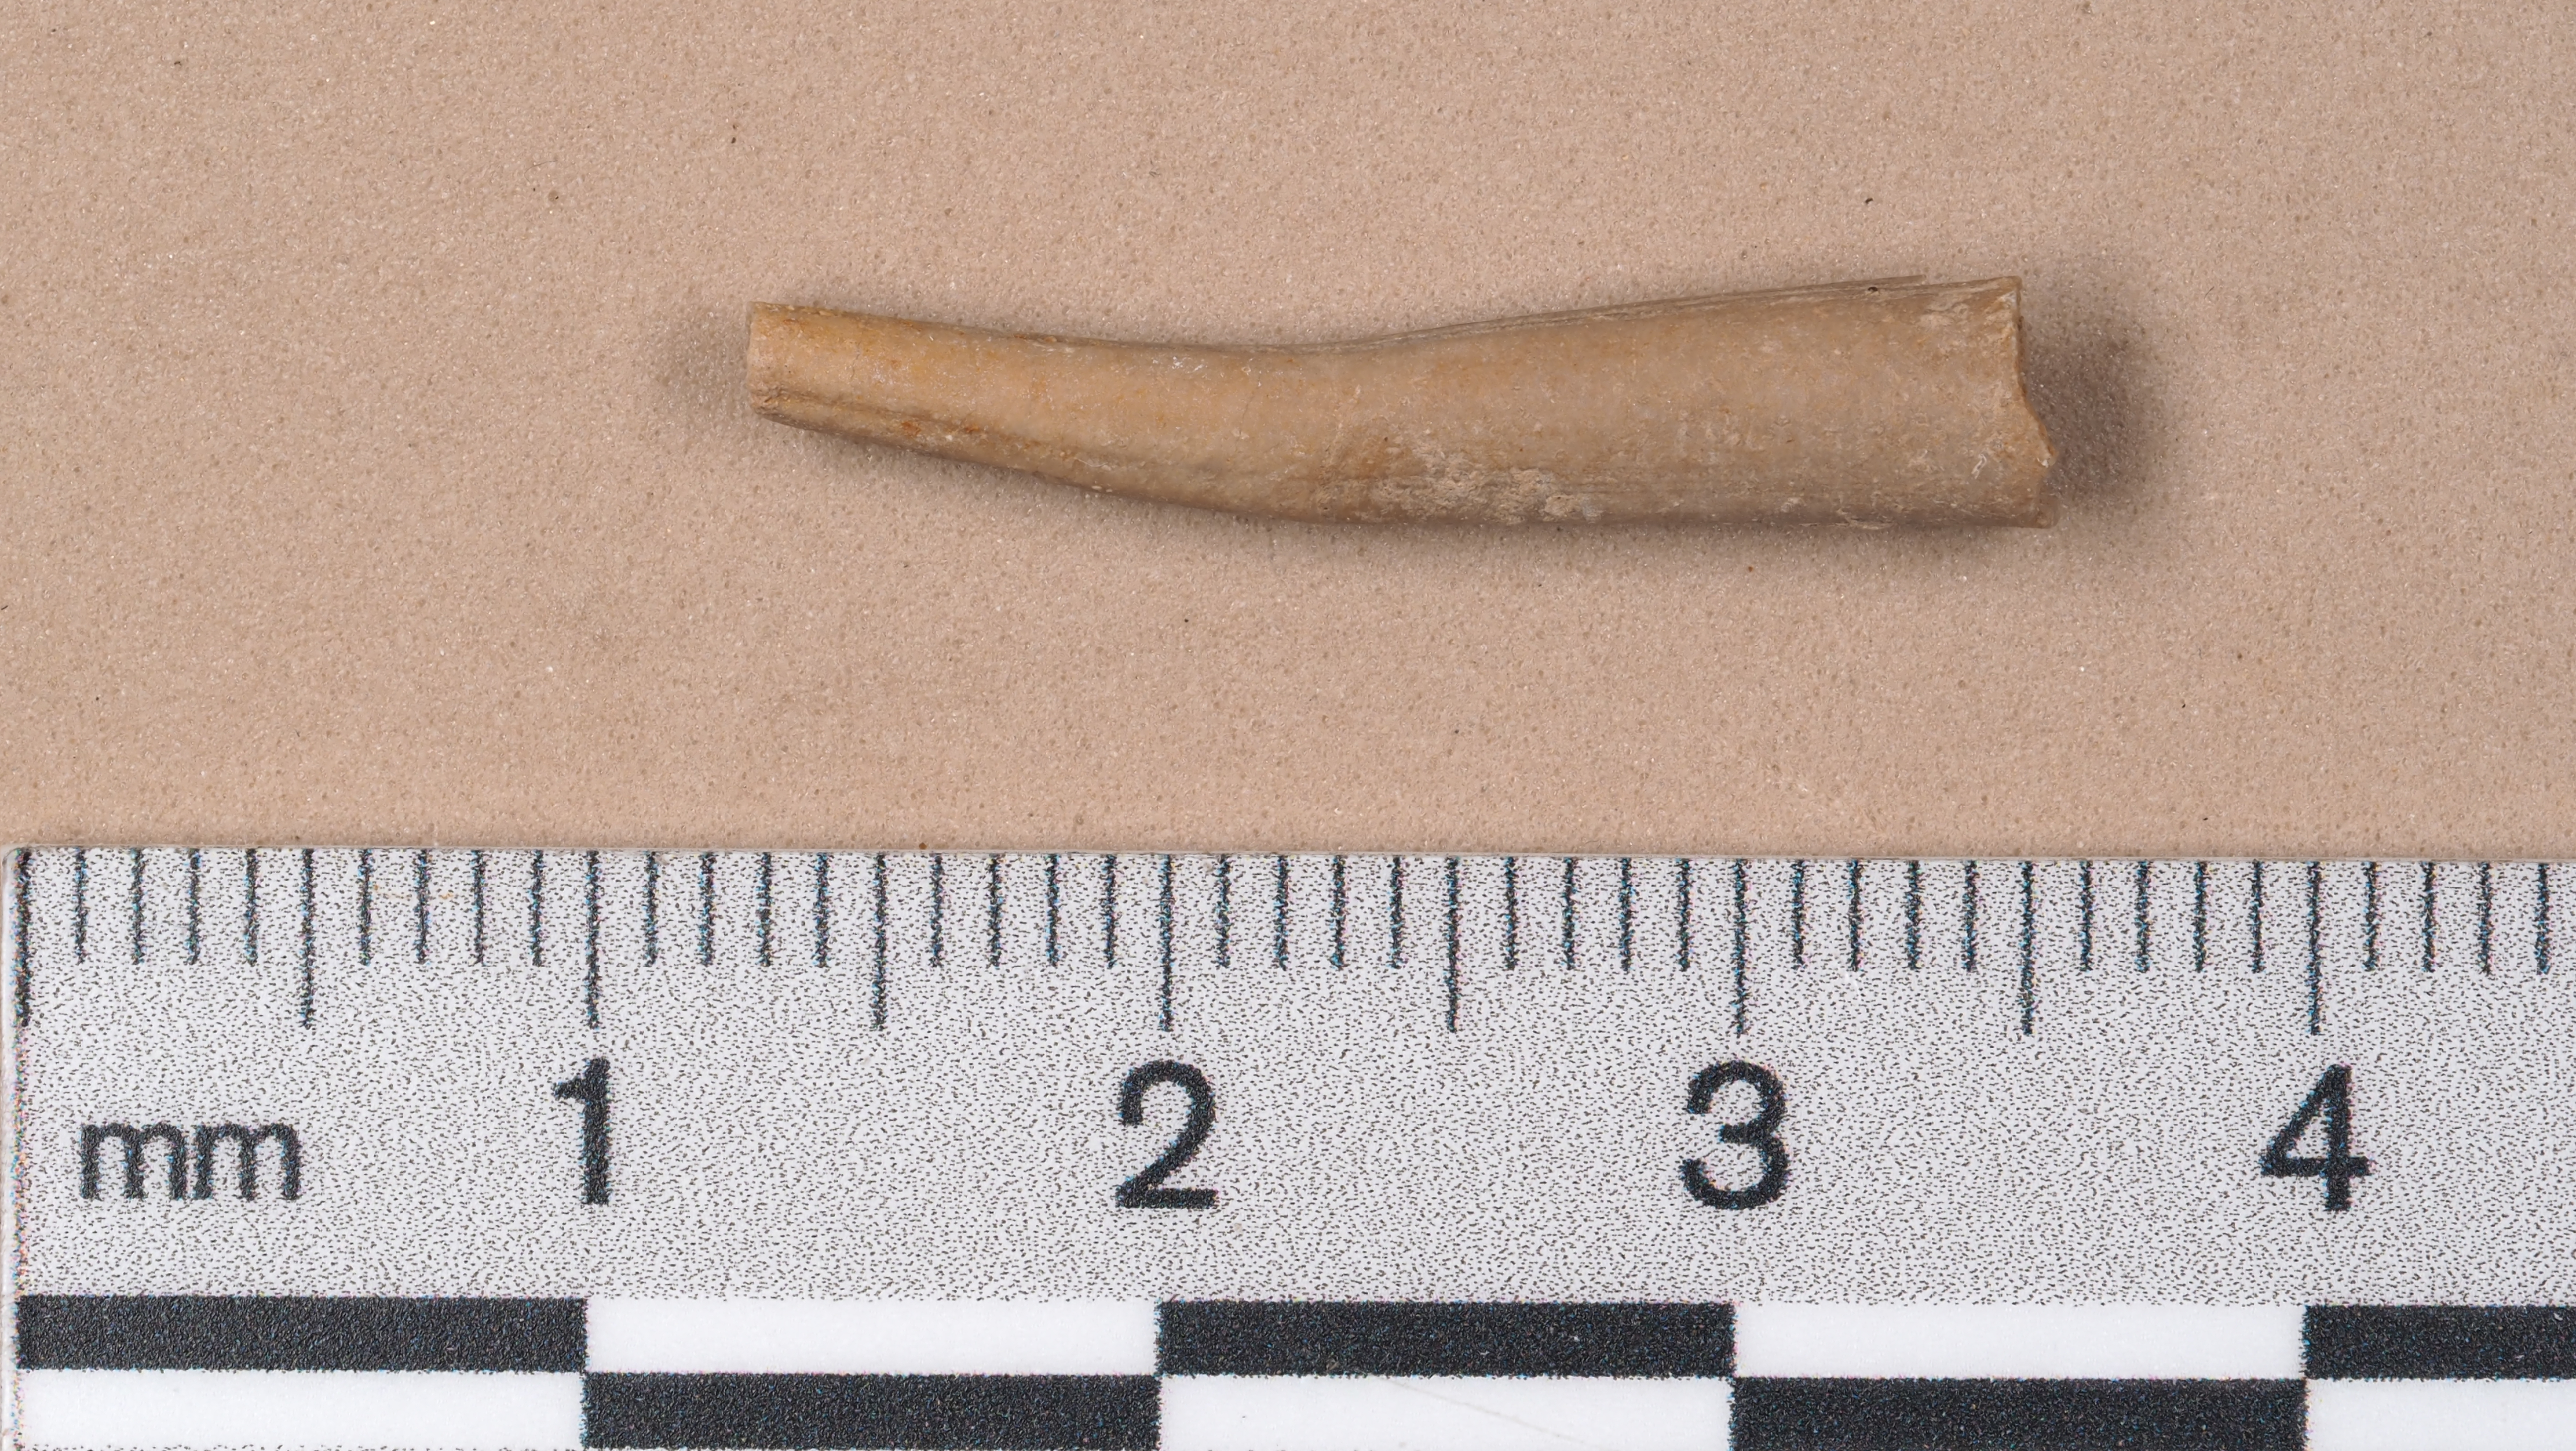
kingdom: Animalia
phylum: Mollusca
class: Cephalopoda
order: Belemnitida
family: Salpingoteuthididae
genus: Salpingoteuthis
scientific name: Salpingoteuthis
